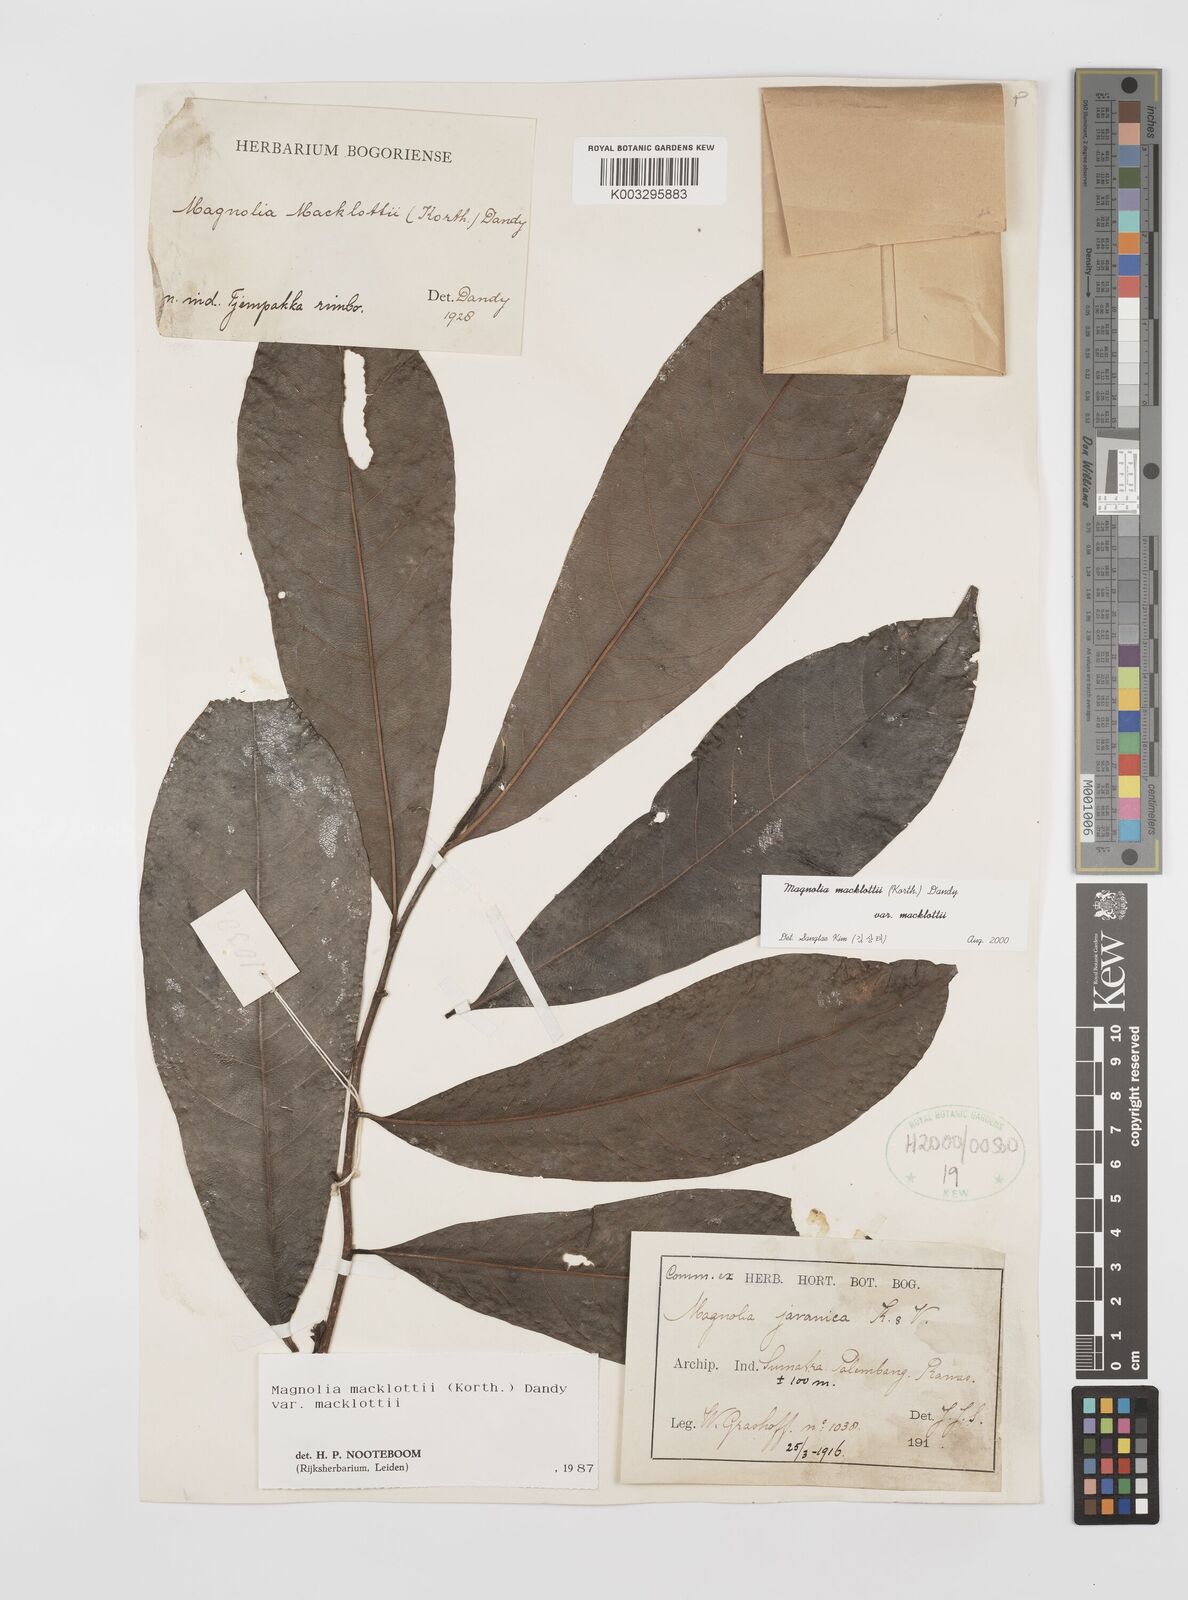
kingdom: Plantae
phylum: Tracheophyta
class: Magnoliopsida
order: Magnoliales
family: Magnoliaceae
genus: Magnolia
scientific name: Magnolia macklottii
